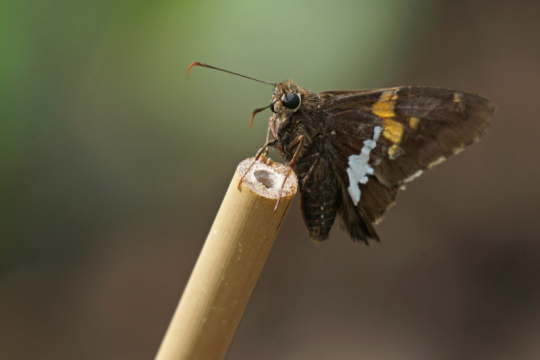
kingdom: Animalia
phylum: Arthropoda
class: Insecta
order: Lepidoptera
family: Hesperiidae
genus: Epargyreus
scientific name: Epargyreus clarus
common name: Silver-spotted Skipper
